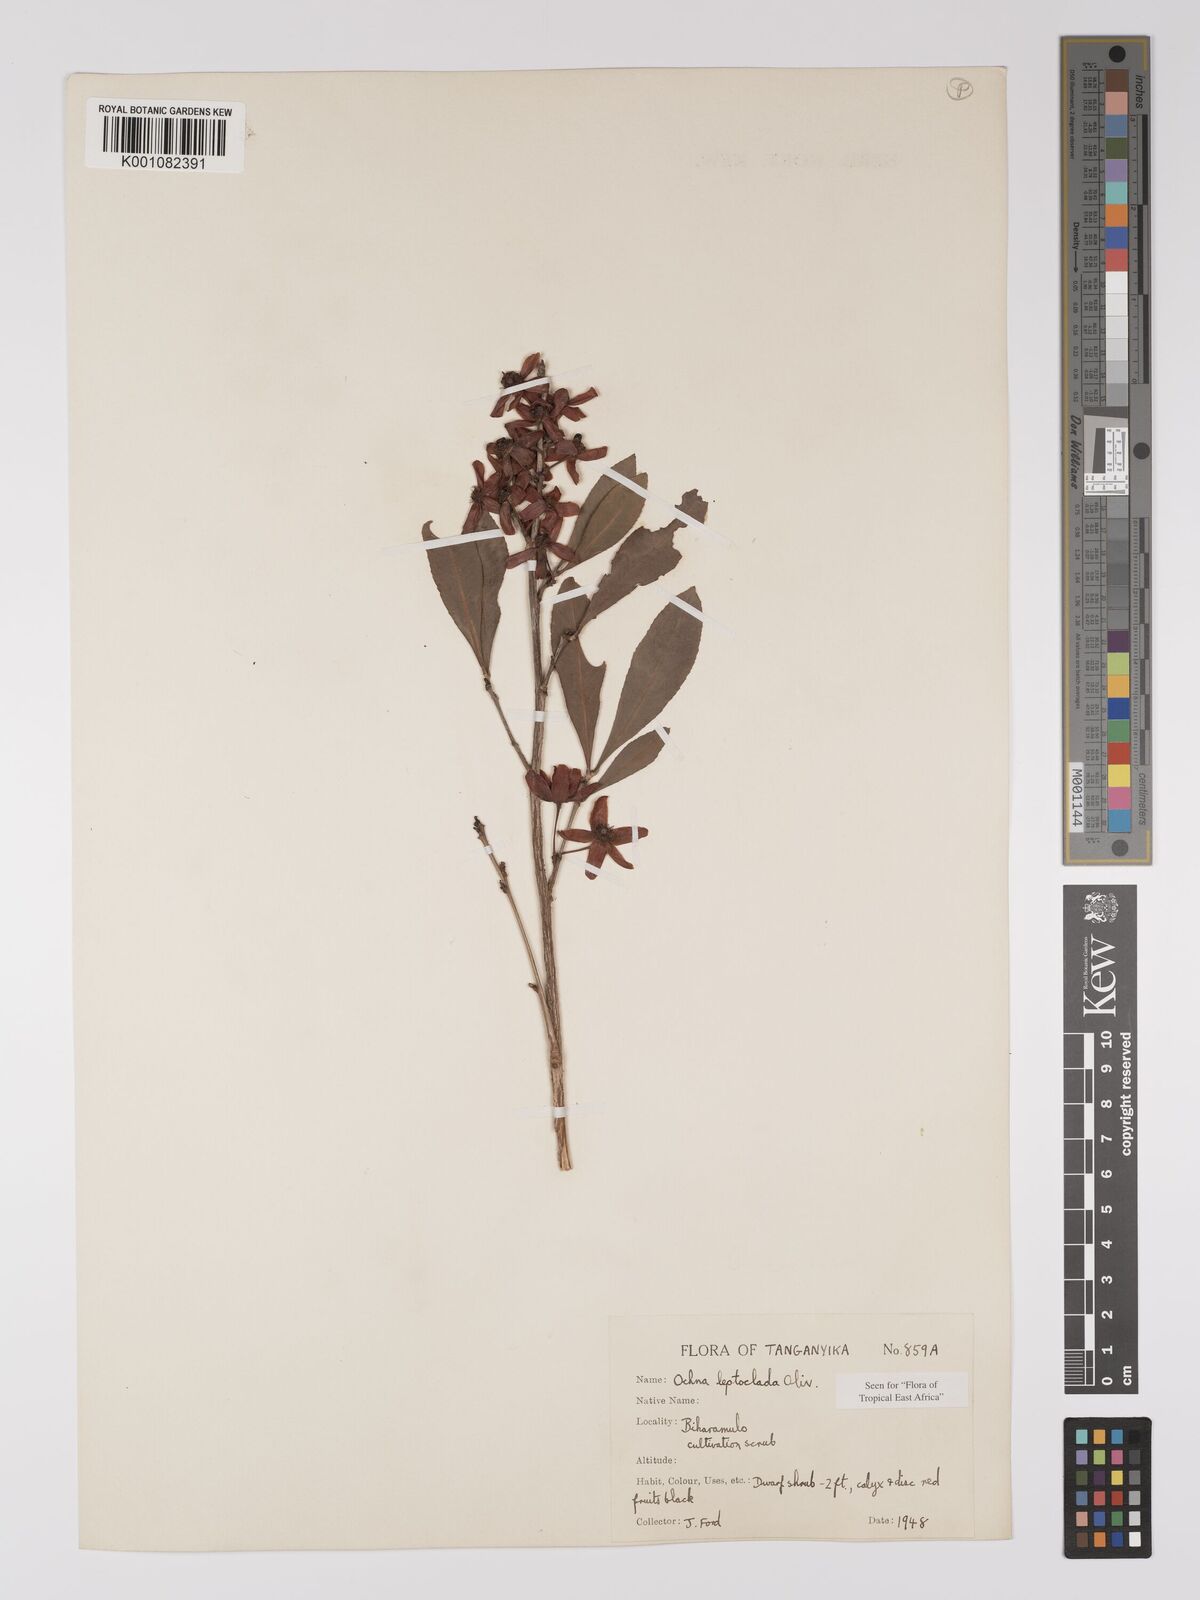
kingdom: Plantae
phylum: Tracheophyta
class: Magnoliopsida
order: Malpighiales
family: Ochnaceae
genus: Ochna
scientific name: Ochna leptoclada
